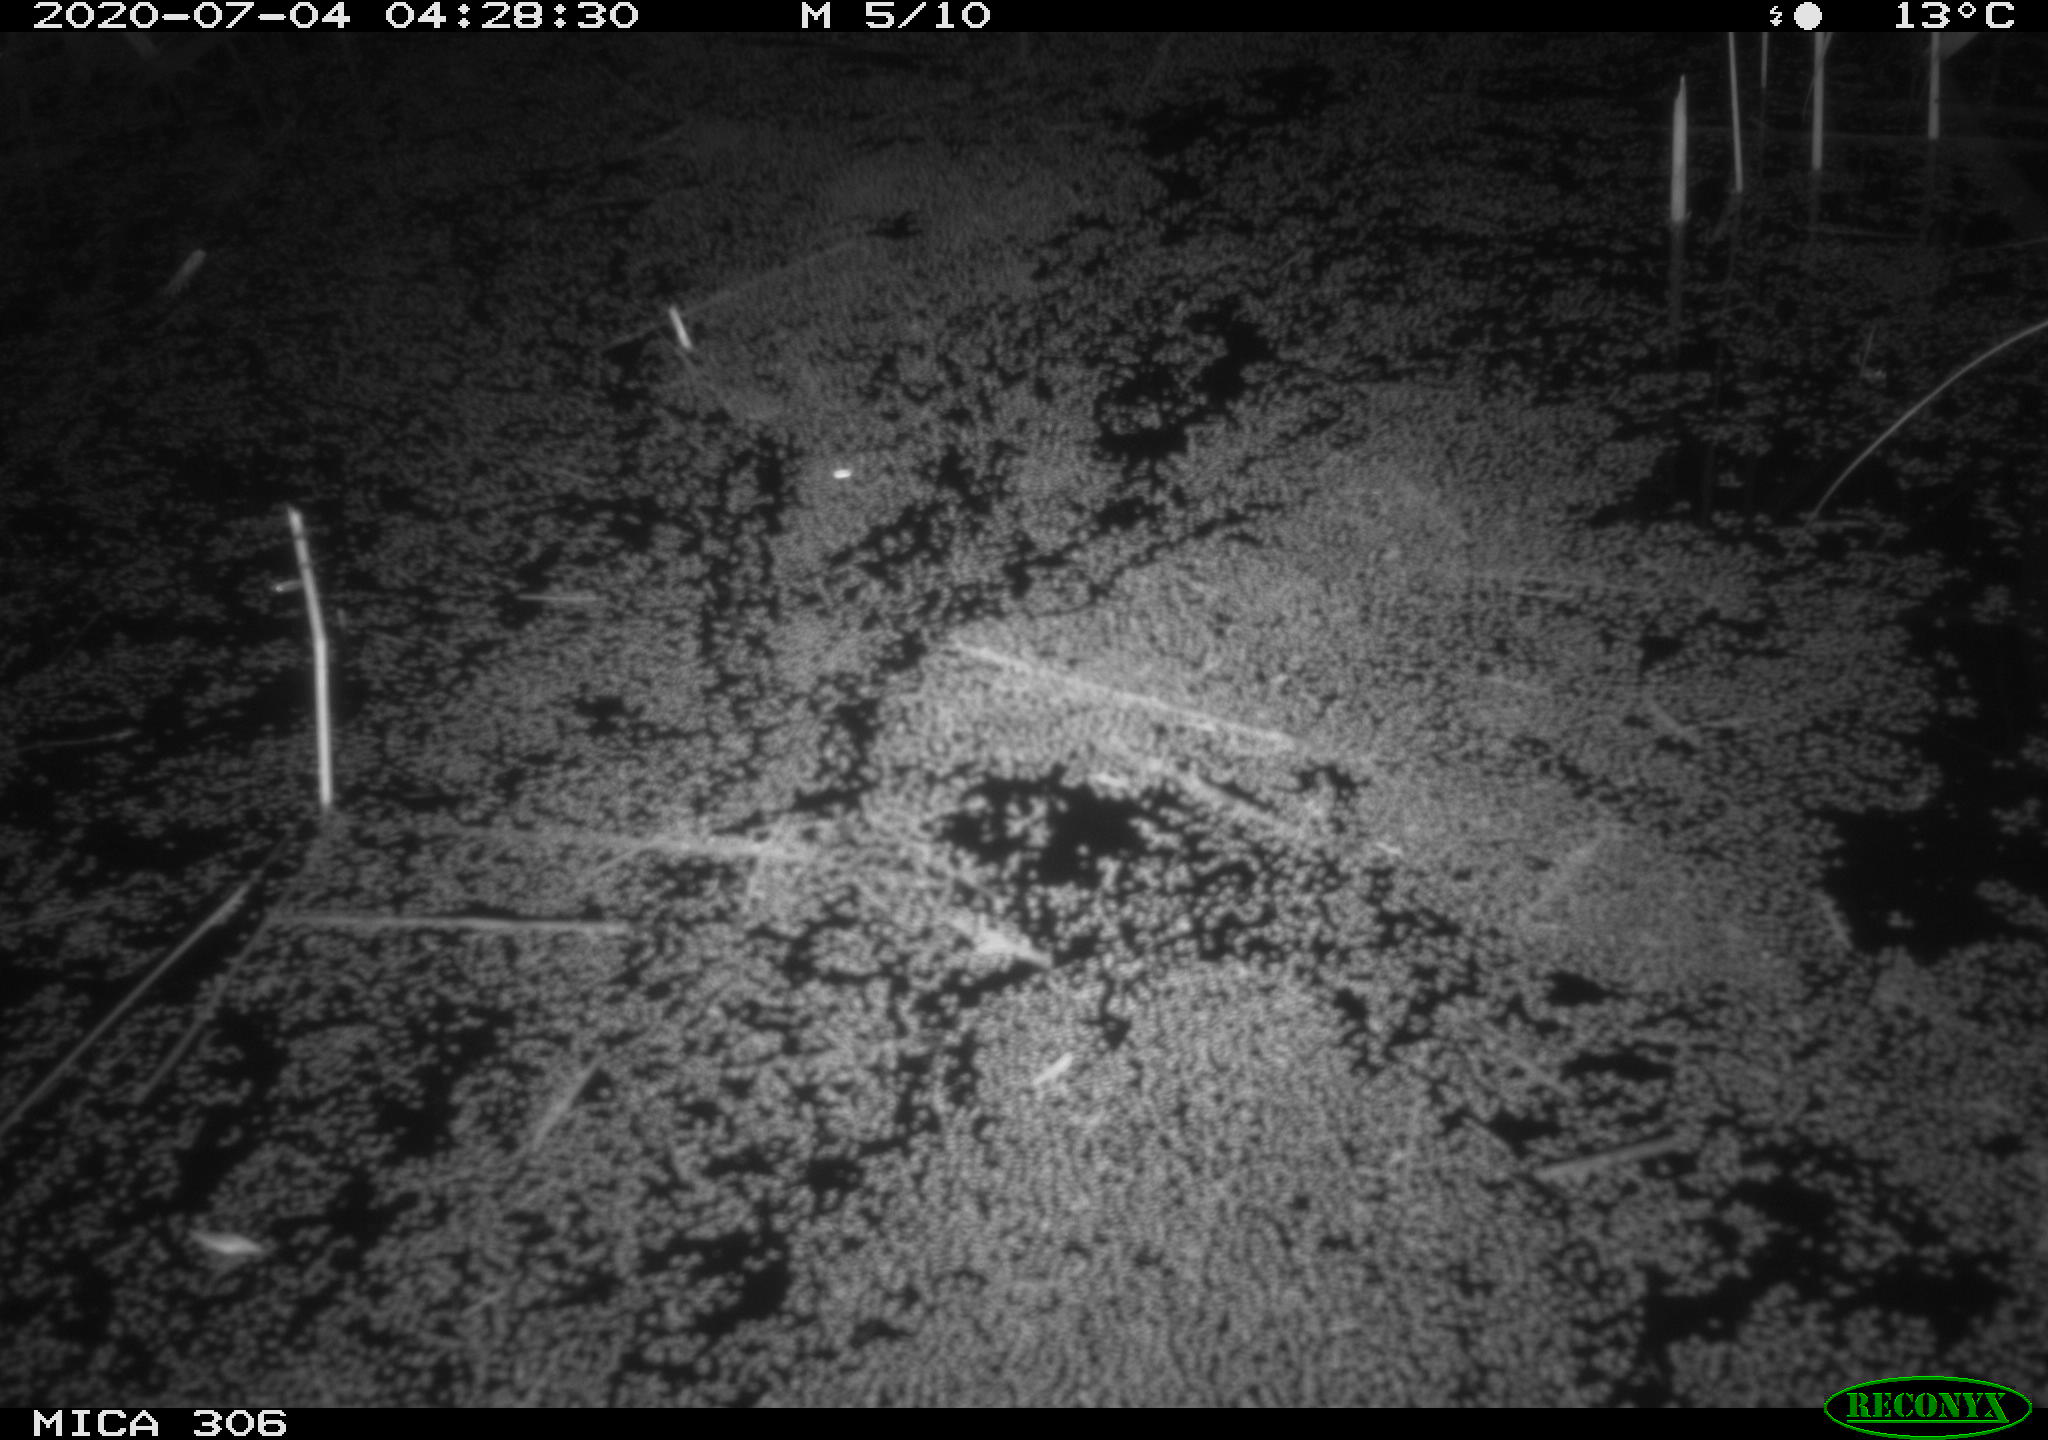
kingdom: Animalia
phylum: Chordata
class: Mammalia
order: Rodentia
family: Muridae
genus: Rattus
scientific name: Rattus norvegicus
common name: Brown rat
